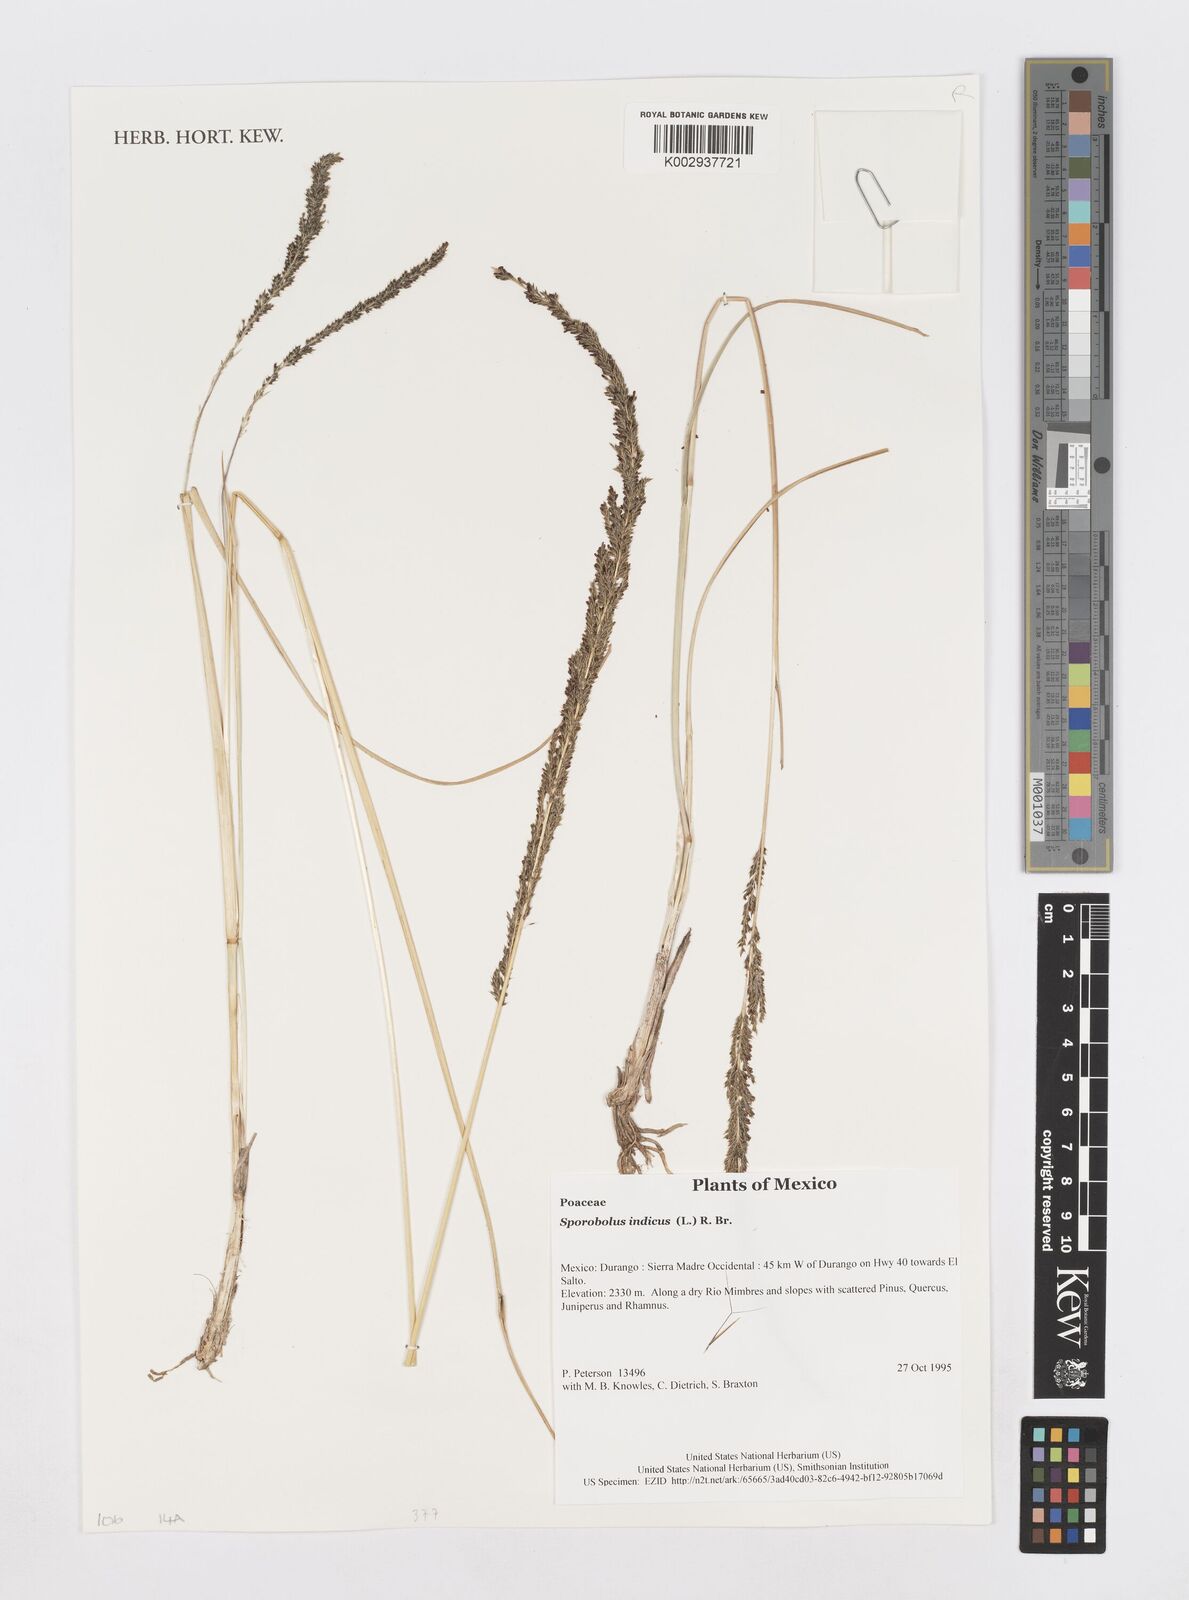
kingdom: Plantae
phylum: Tracheophyta
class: Liliopsida
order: Poales
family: Poaceae
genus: Sporobolus
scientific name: Sporobolus junceus
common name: Lizard grass
